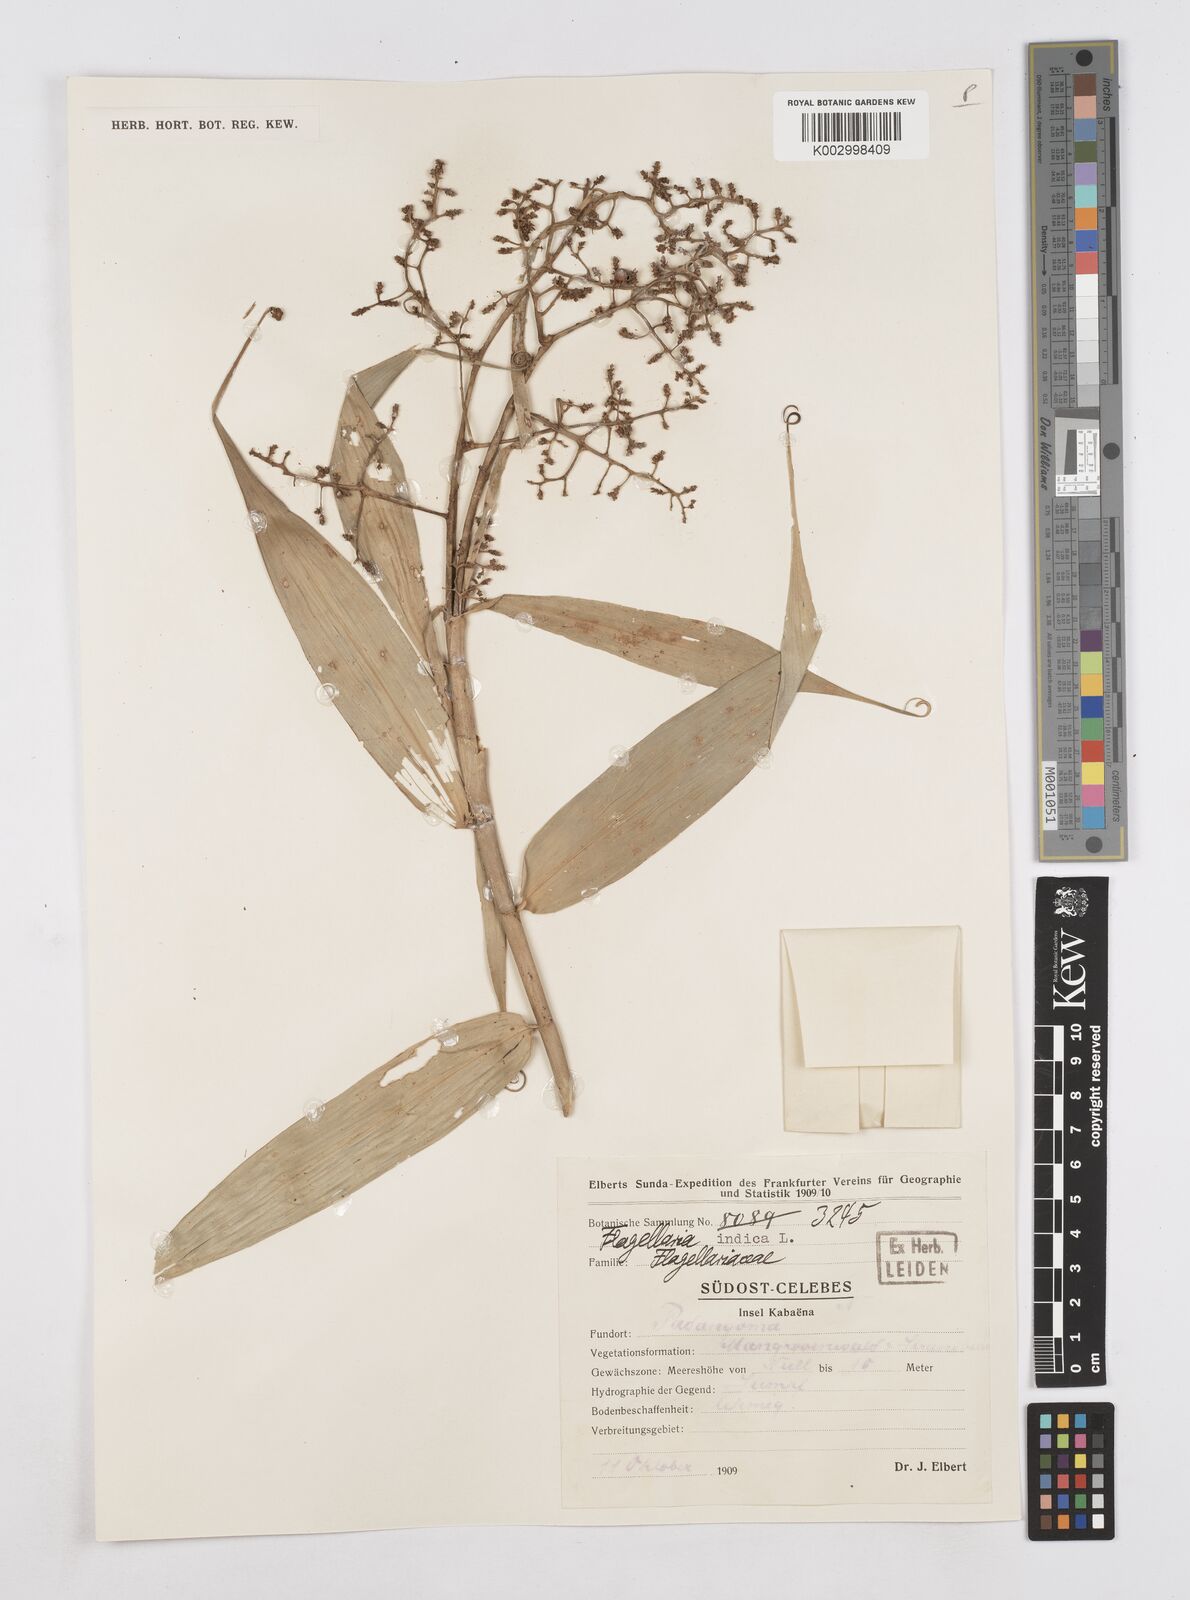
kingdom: Plantae
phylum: Tracheophyta
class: Liliopsida
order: Poales
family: Flagellariaceae
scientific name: Flagellariaceae
